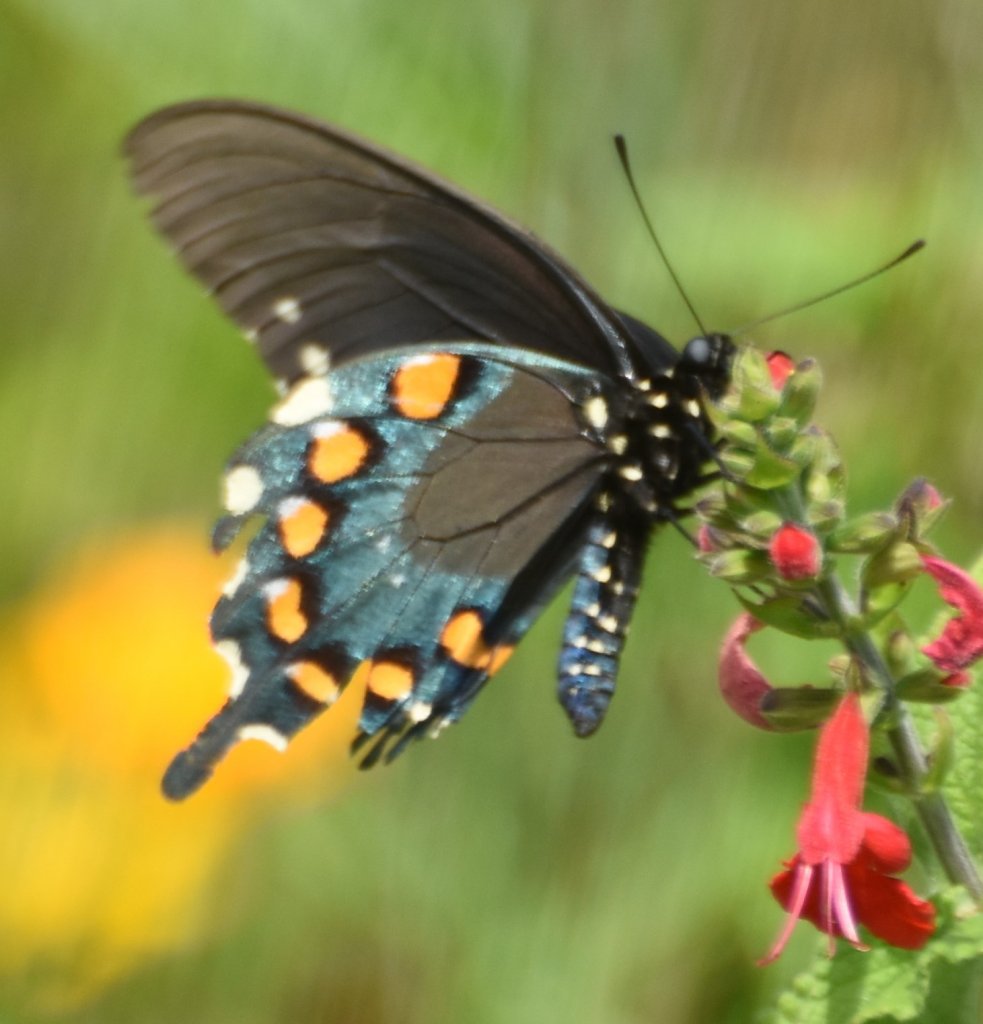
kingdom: Animalia
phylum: Arthropoda
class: Insecta
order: Lepidoptera
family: Papilionidae
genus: Battus
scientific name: Battus philenor
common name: Pipevine Swallowtail
